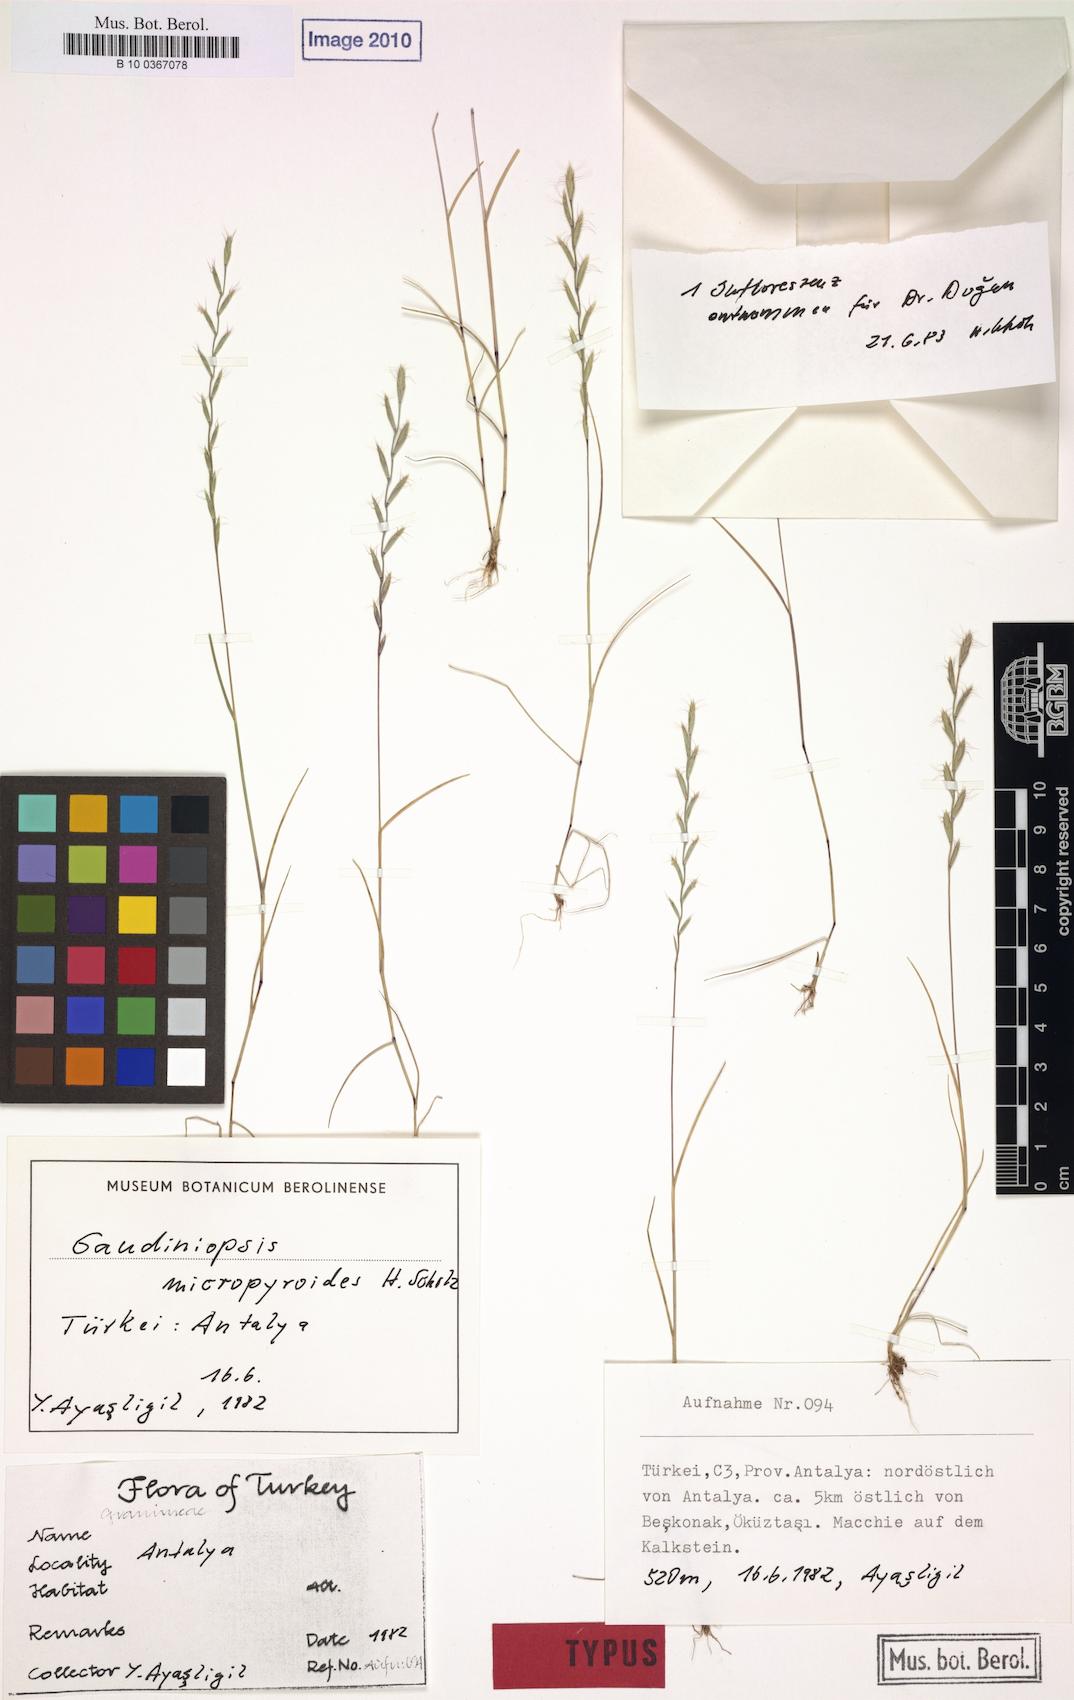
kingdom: Plantae
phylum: Tracheophyta
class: Liliopsida
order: Poales
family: Poaceae
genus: Ventenata
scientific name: Ventenata macra
